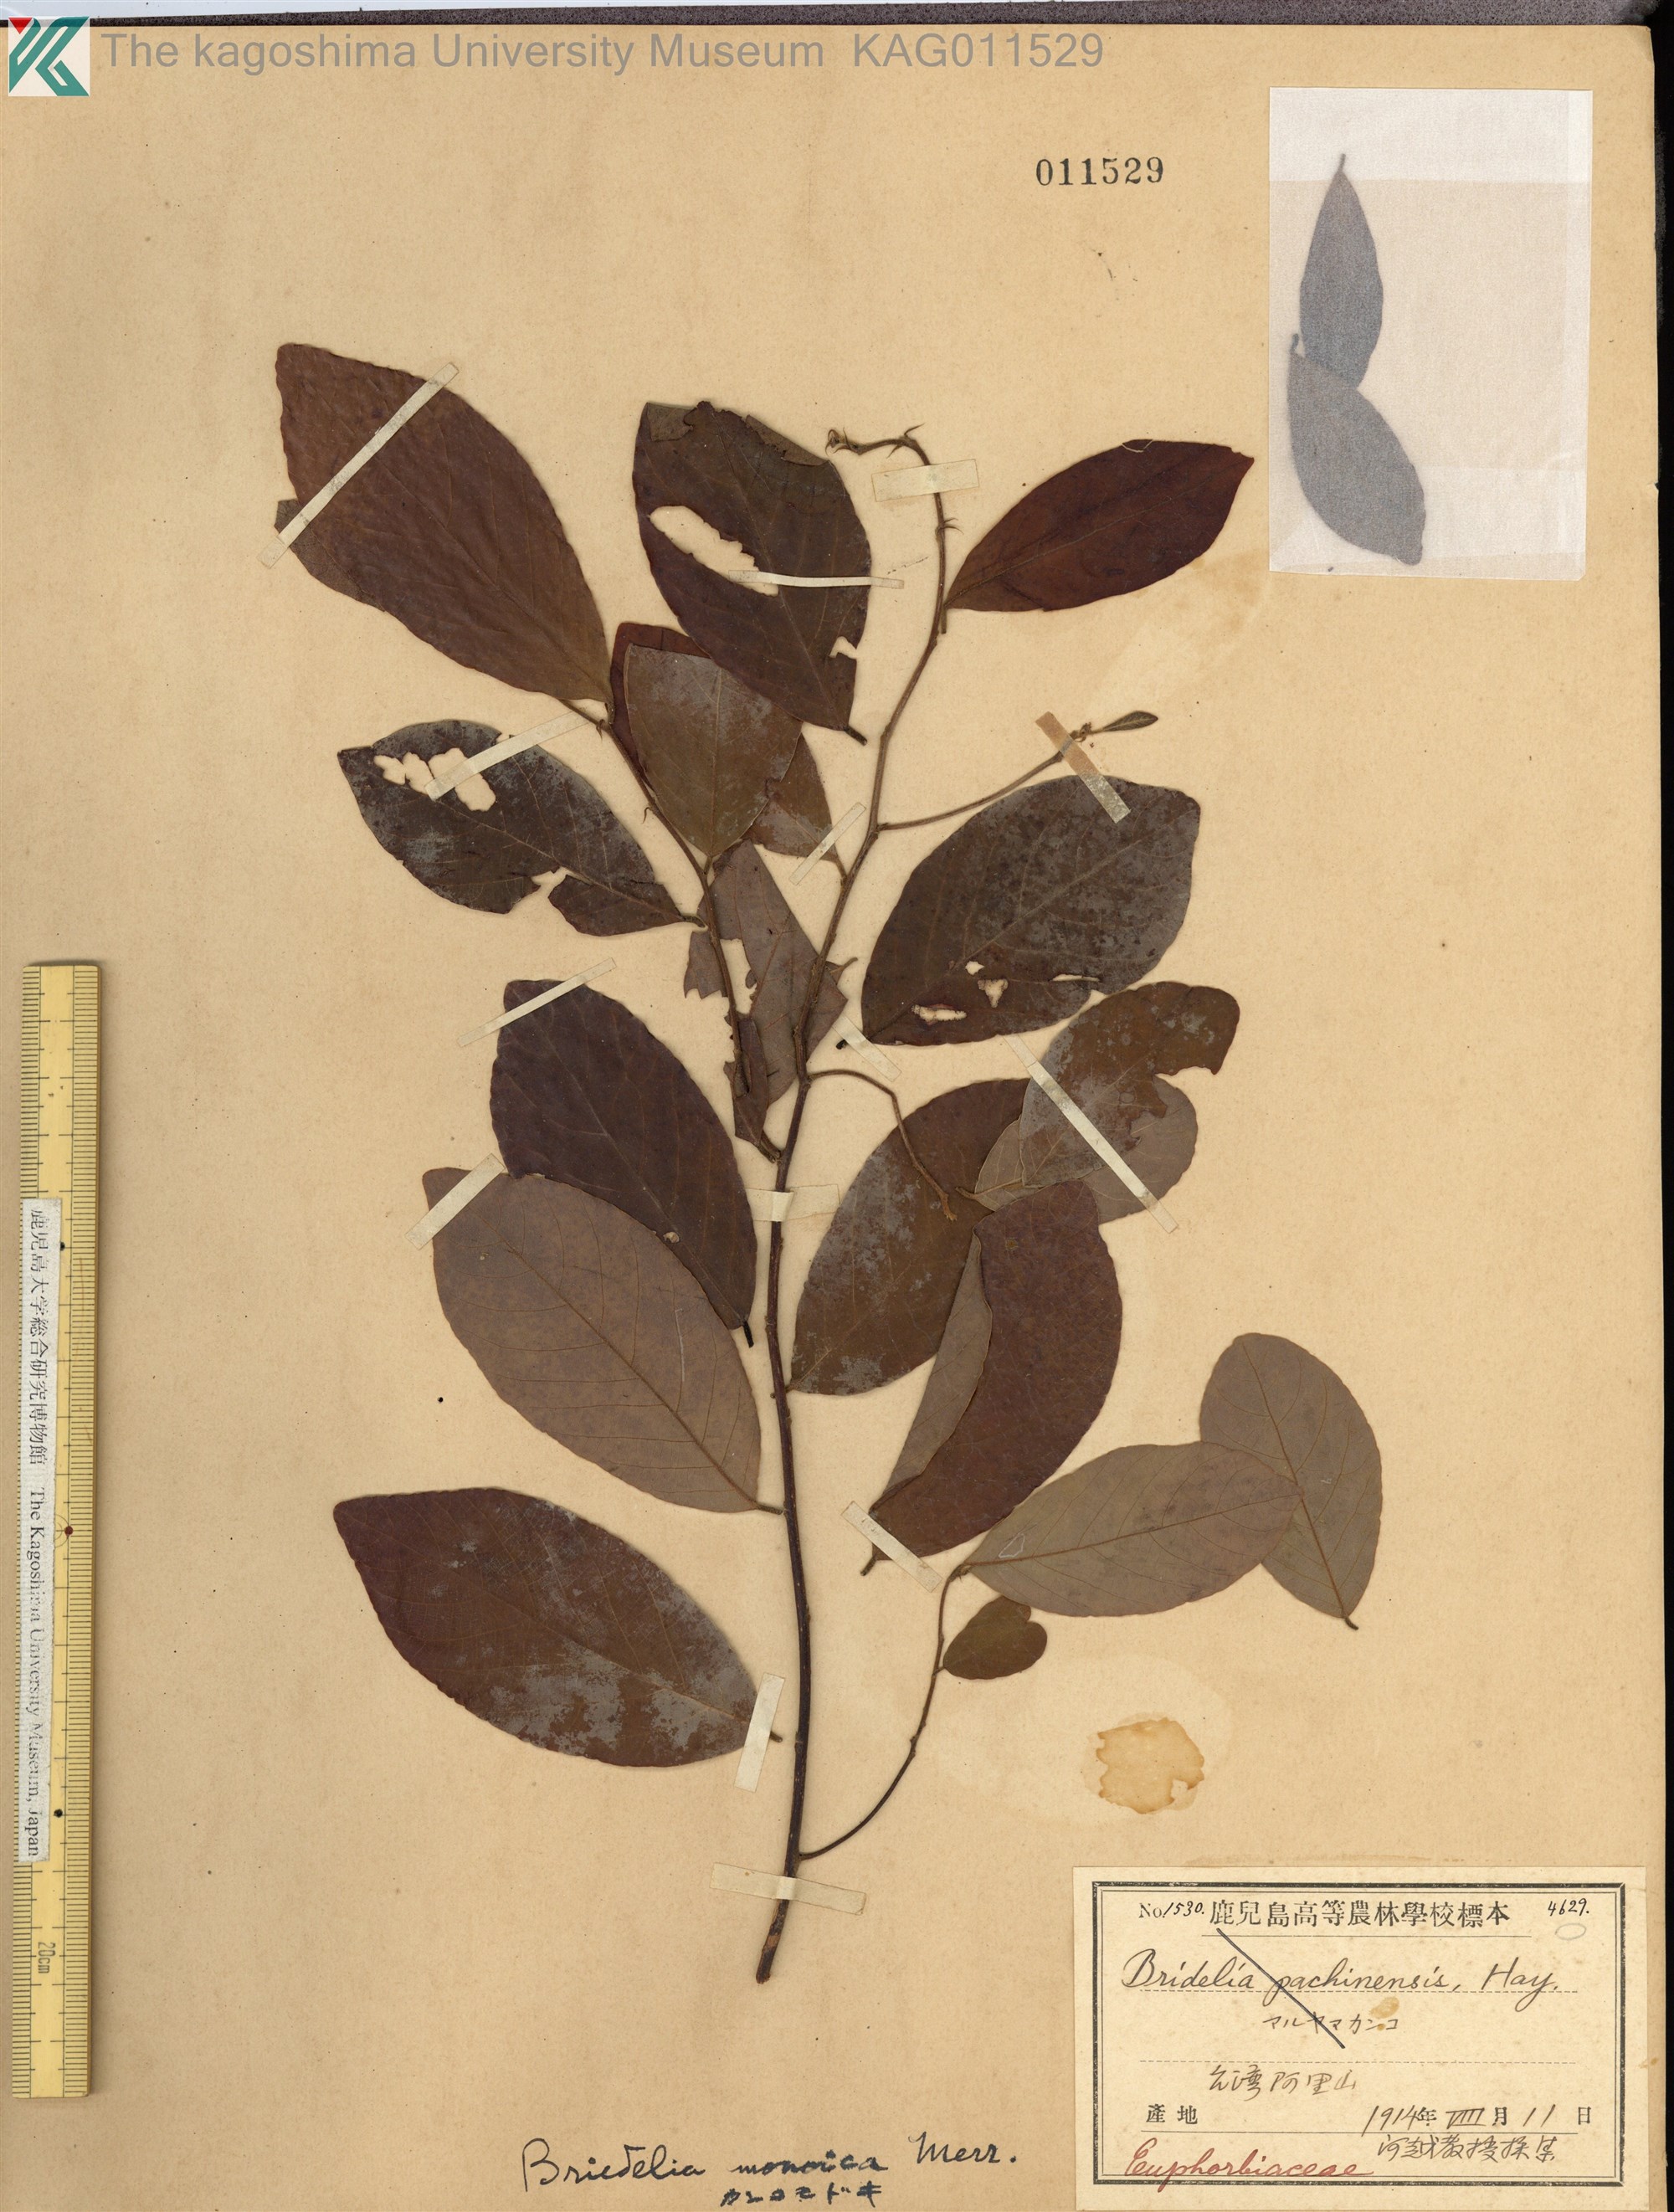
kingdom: Plantae
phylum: Tracheophyta
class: Magnoliopsida
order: Malpighiales
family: Phyllanthaceae
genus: Cleistanthus
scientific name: Cleistanthus monoicus
